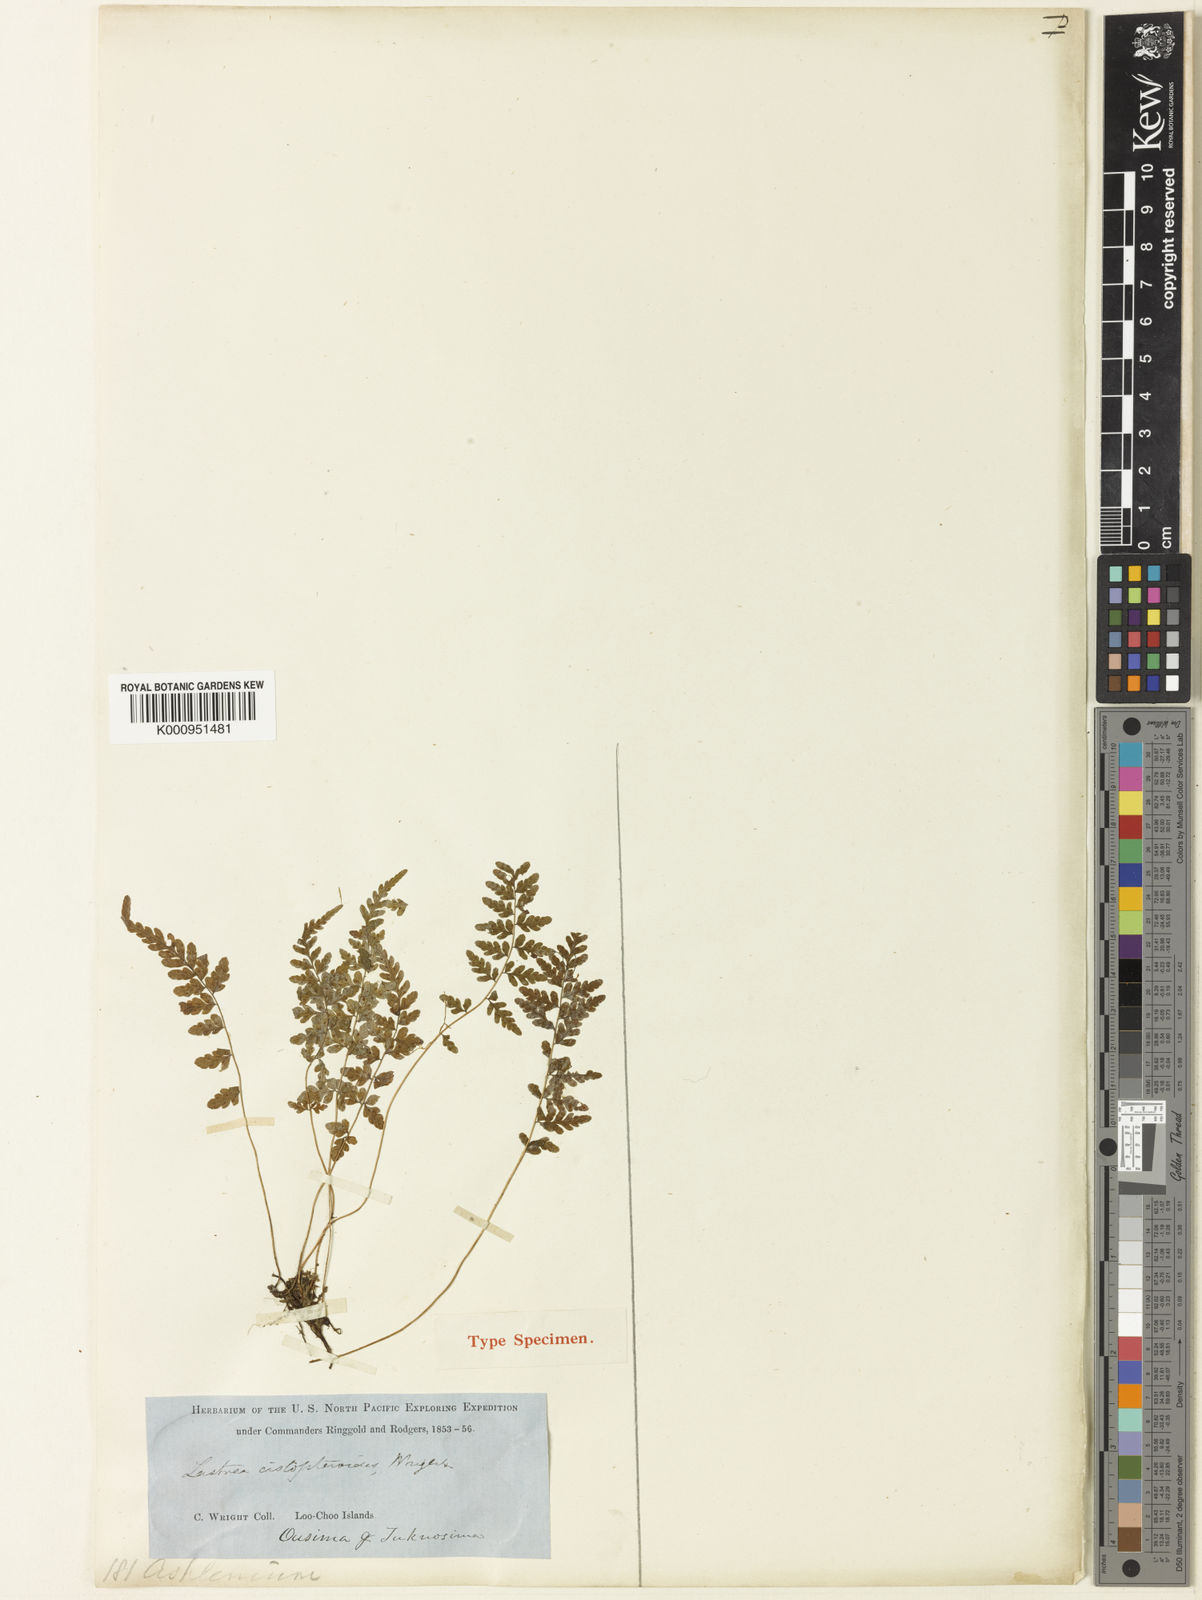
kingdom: Plantae
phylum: Tracheophyta
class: Polypodiopsida
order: Polypodiales
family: Thelypteridaceae
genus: Amauropelta
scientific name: Amauropelta cystopteroides
